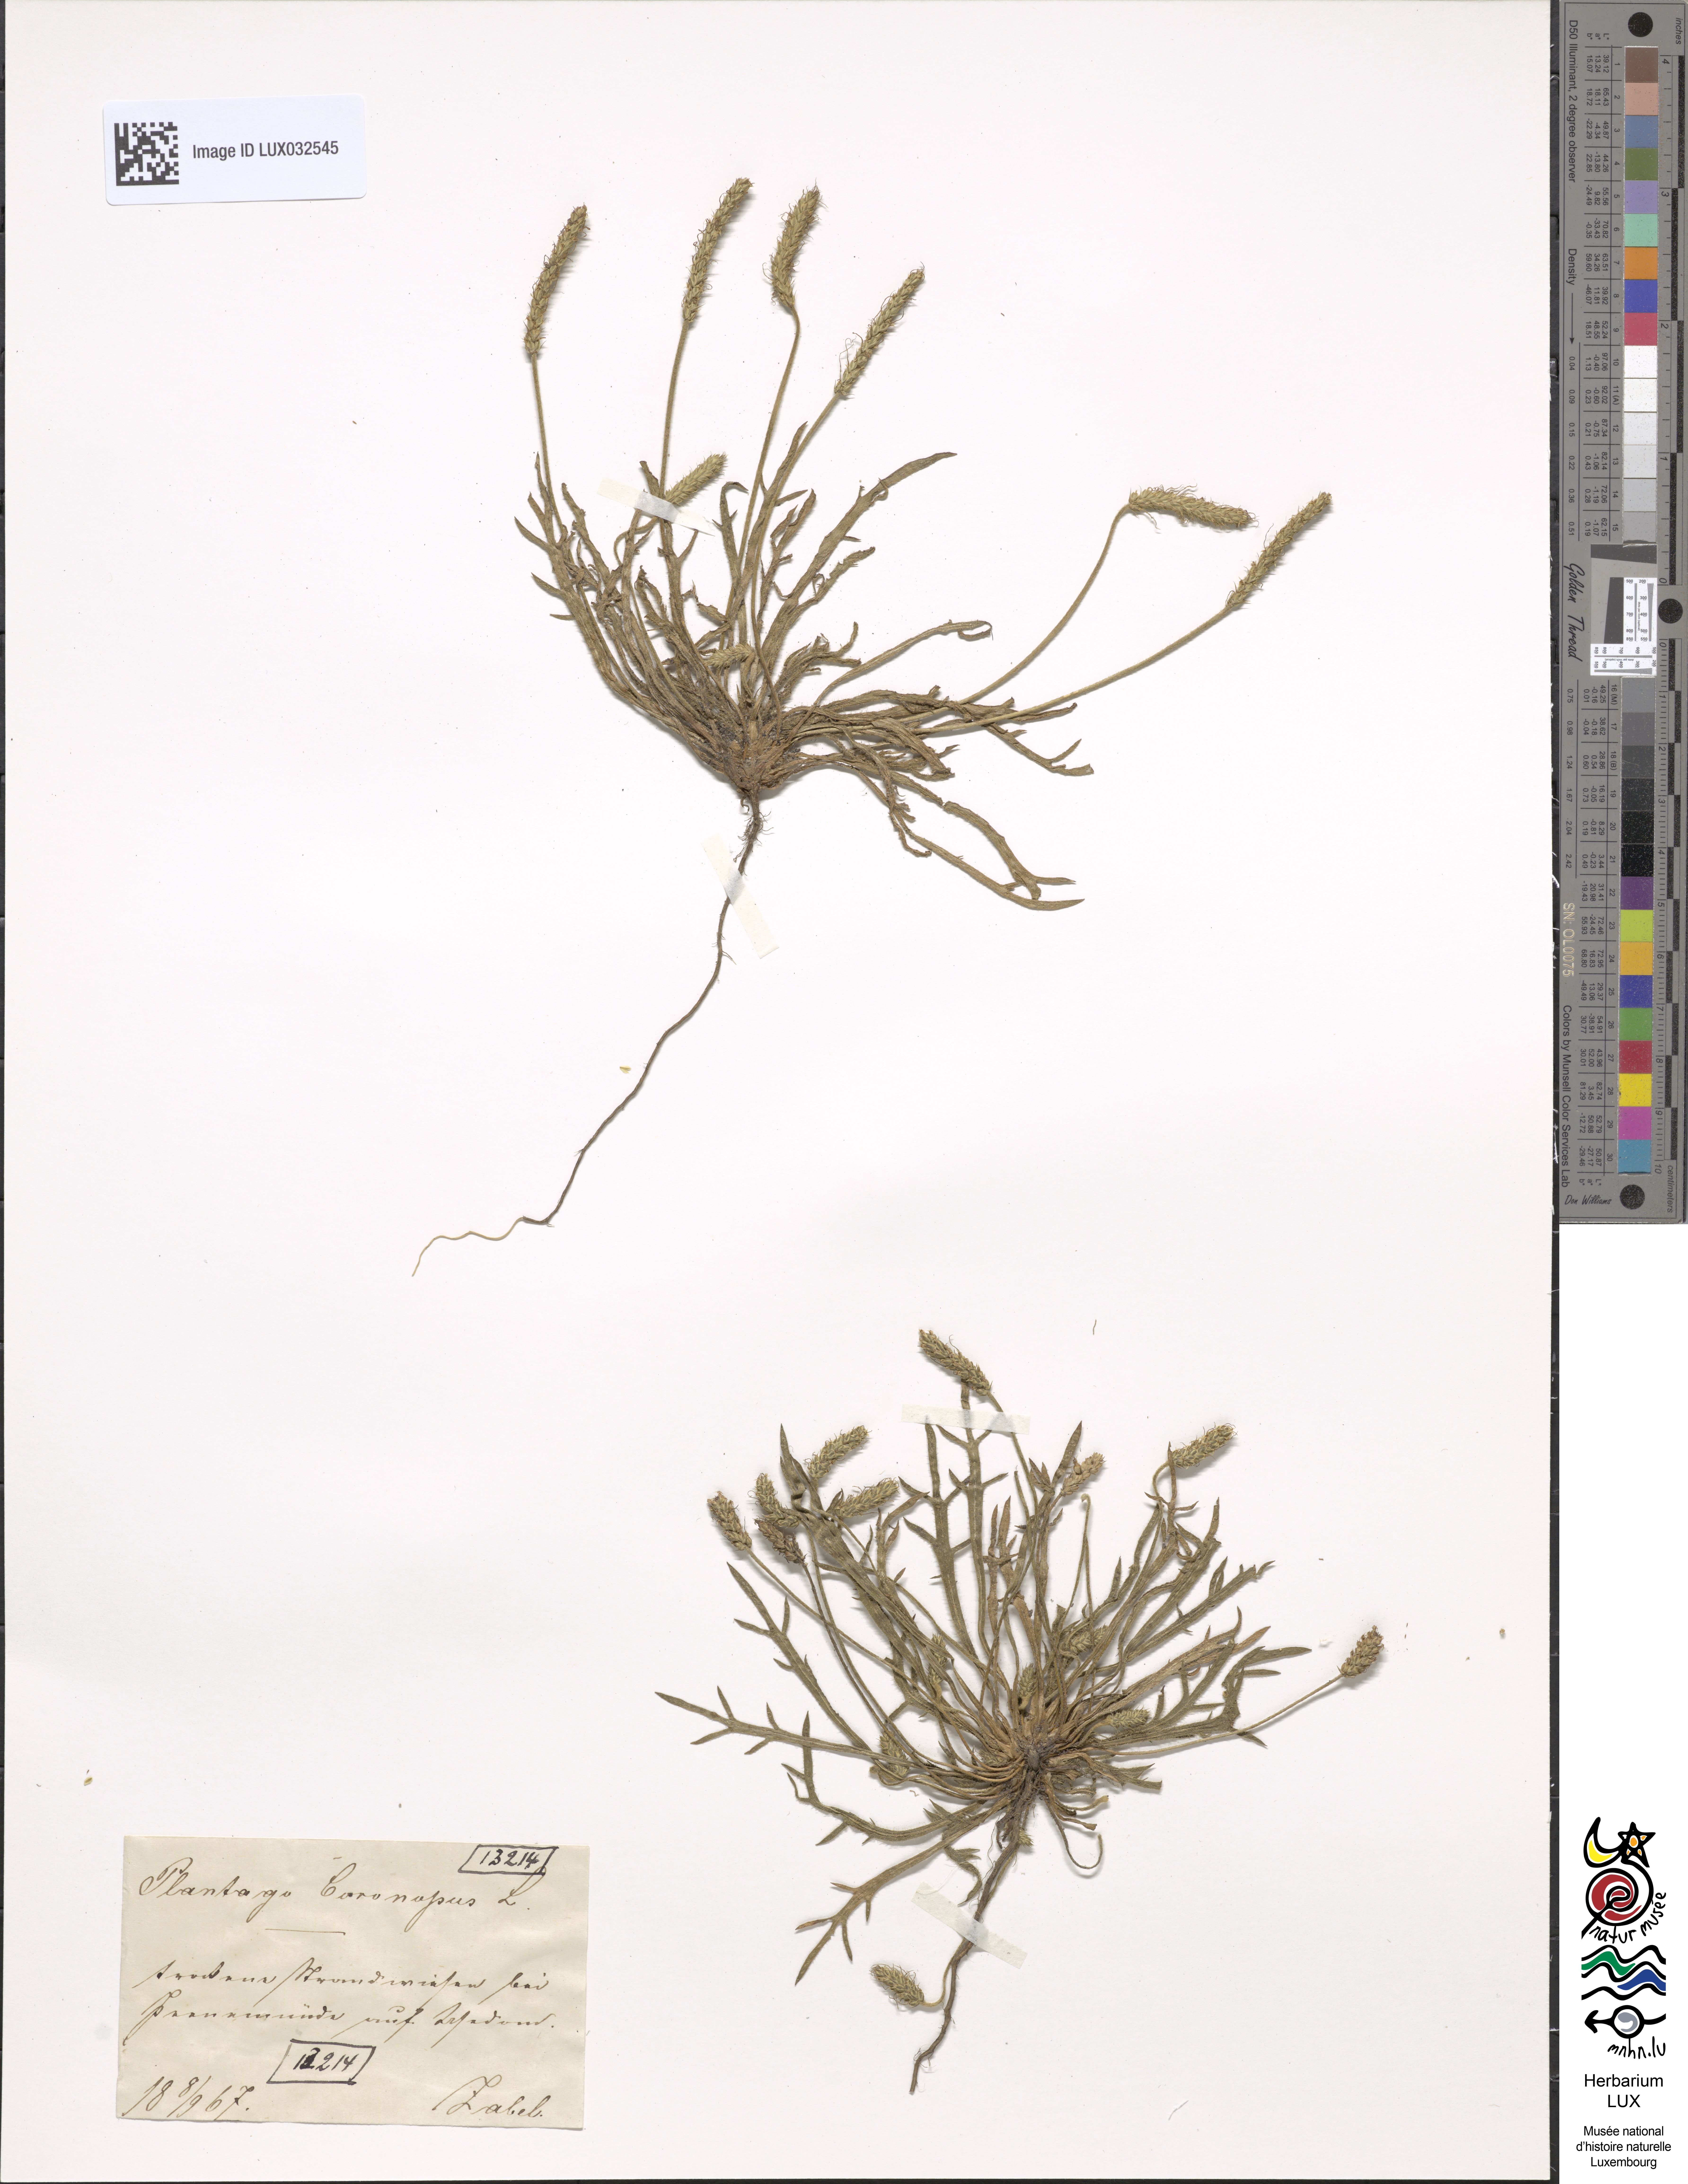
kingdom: Plantae
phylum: Tracheophyta
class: Magnoliopsida
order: Lamiales
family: Plantaginaceae
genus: Plantago
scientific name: Plantago coronopus
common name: Buck's-horn plantain
